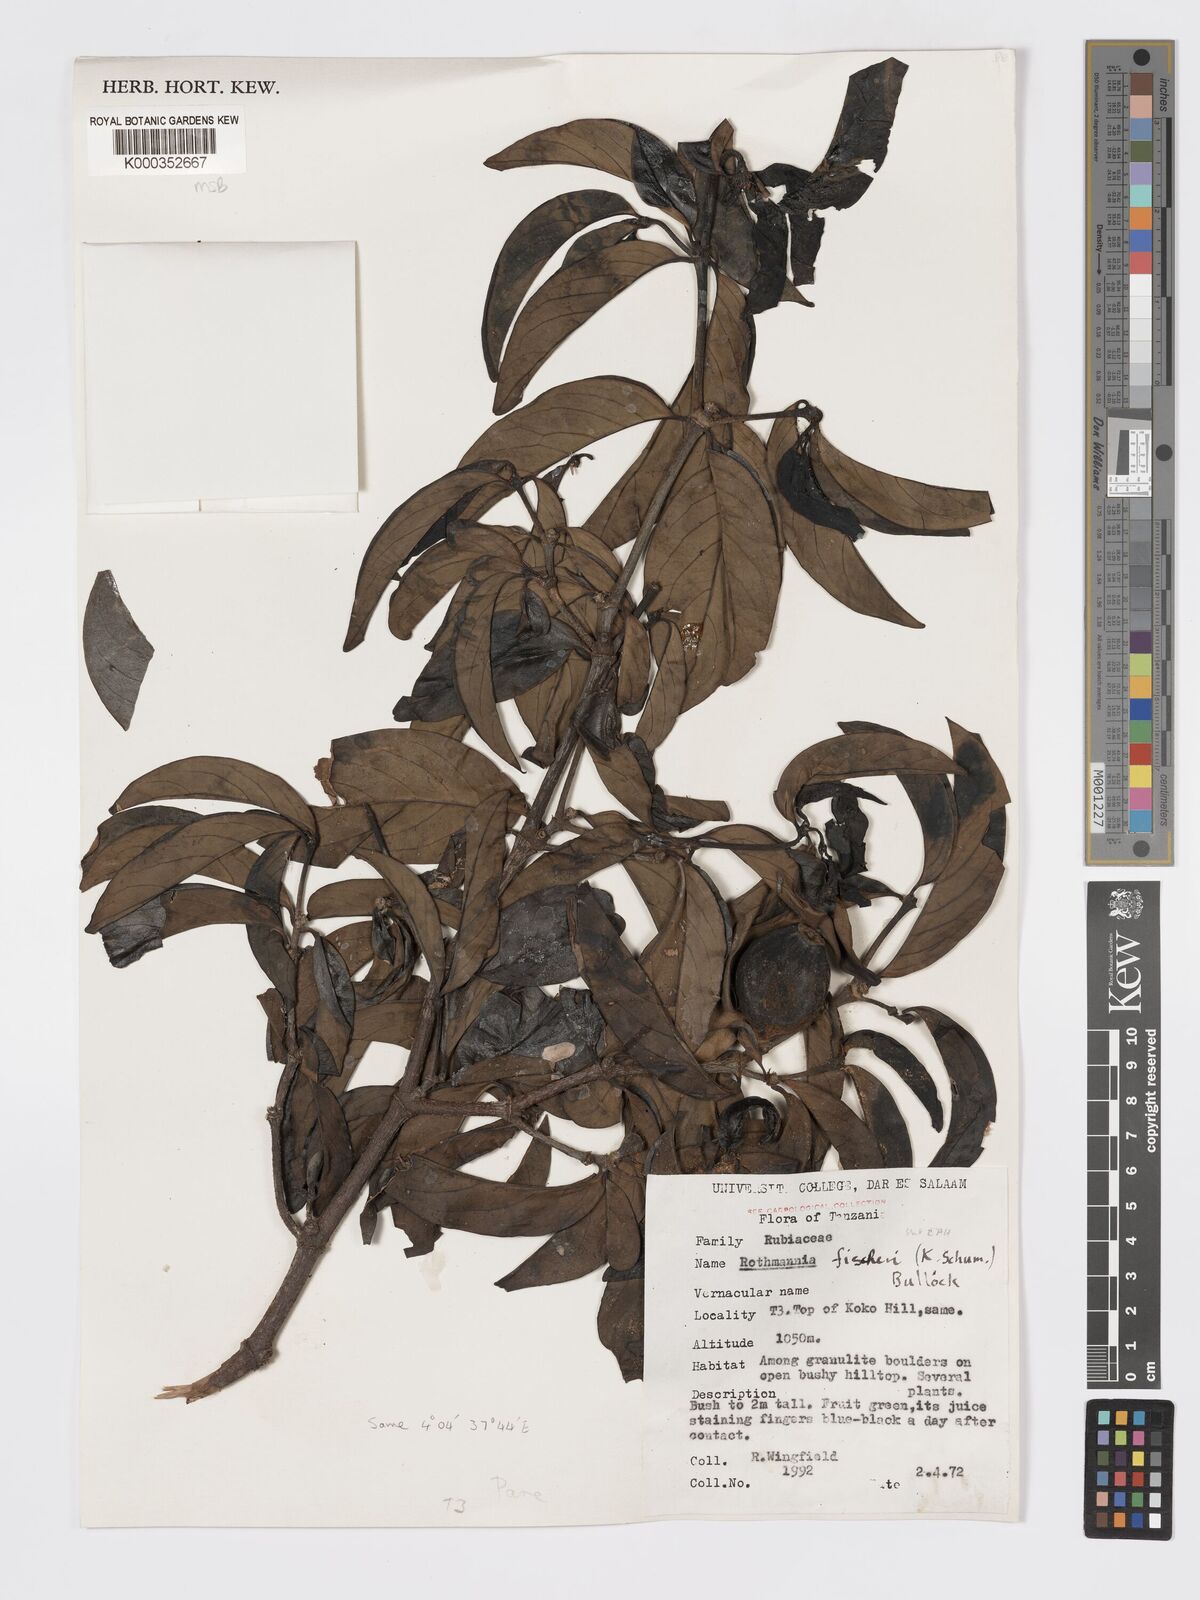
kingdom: Plantae
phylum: Tracheophyta
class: Magnoliopsida
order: Gentianales
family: Rubiaceae
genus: Rothmannia
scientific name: Rothmannia fischeri
